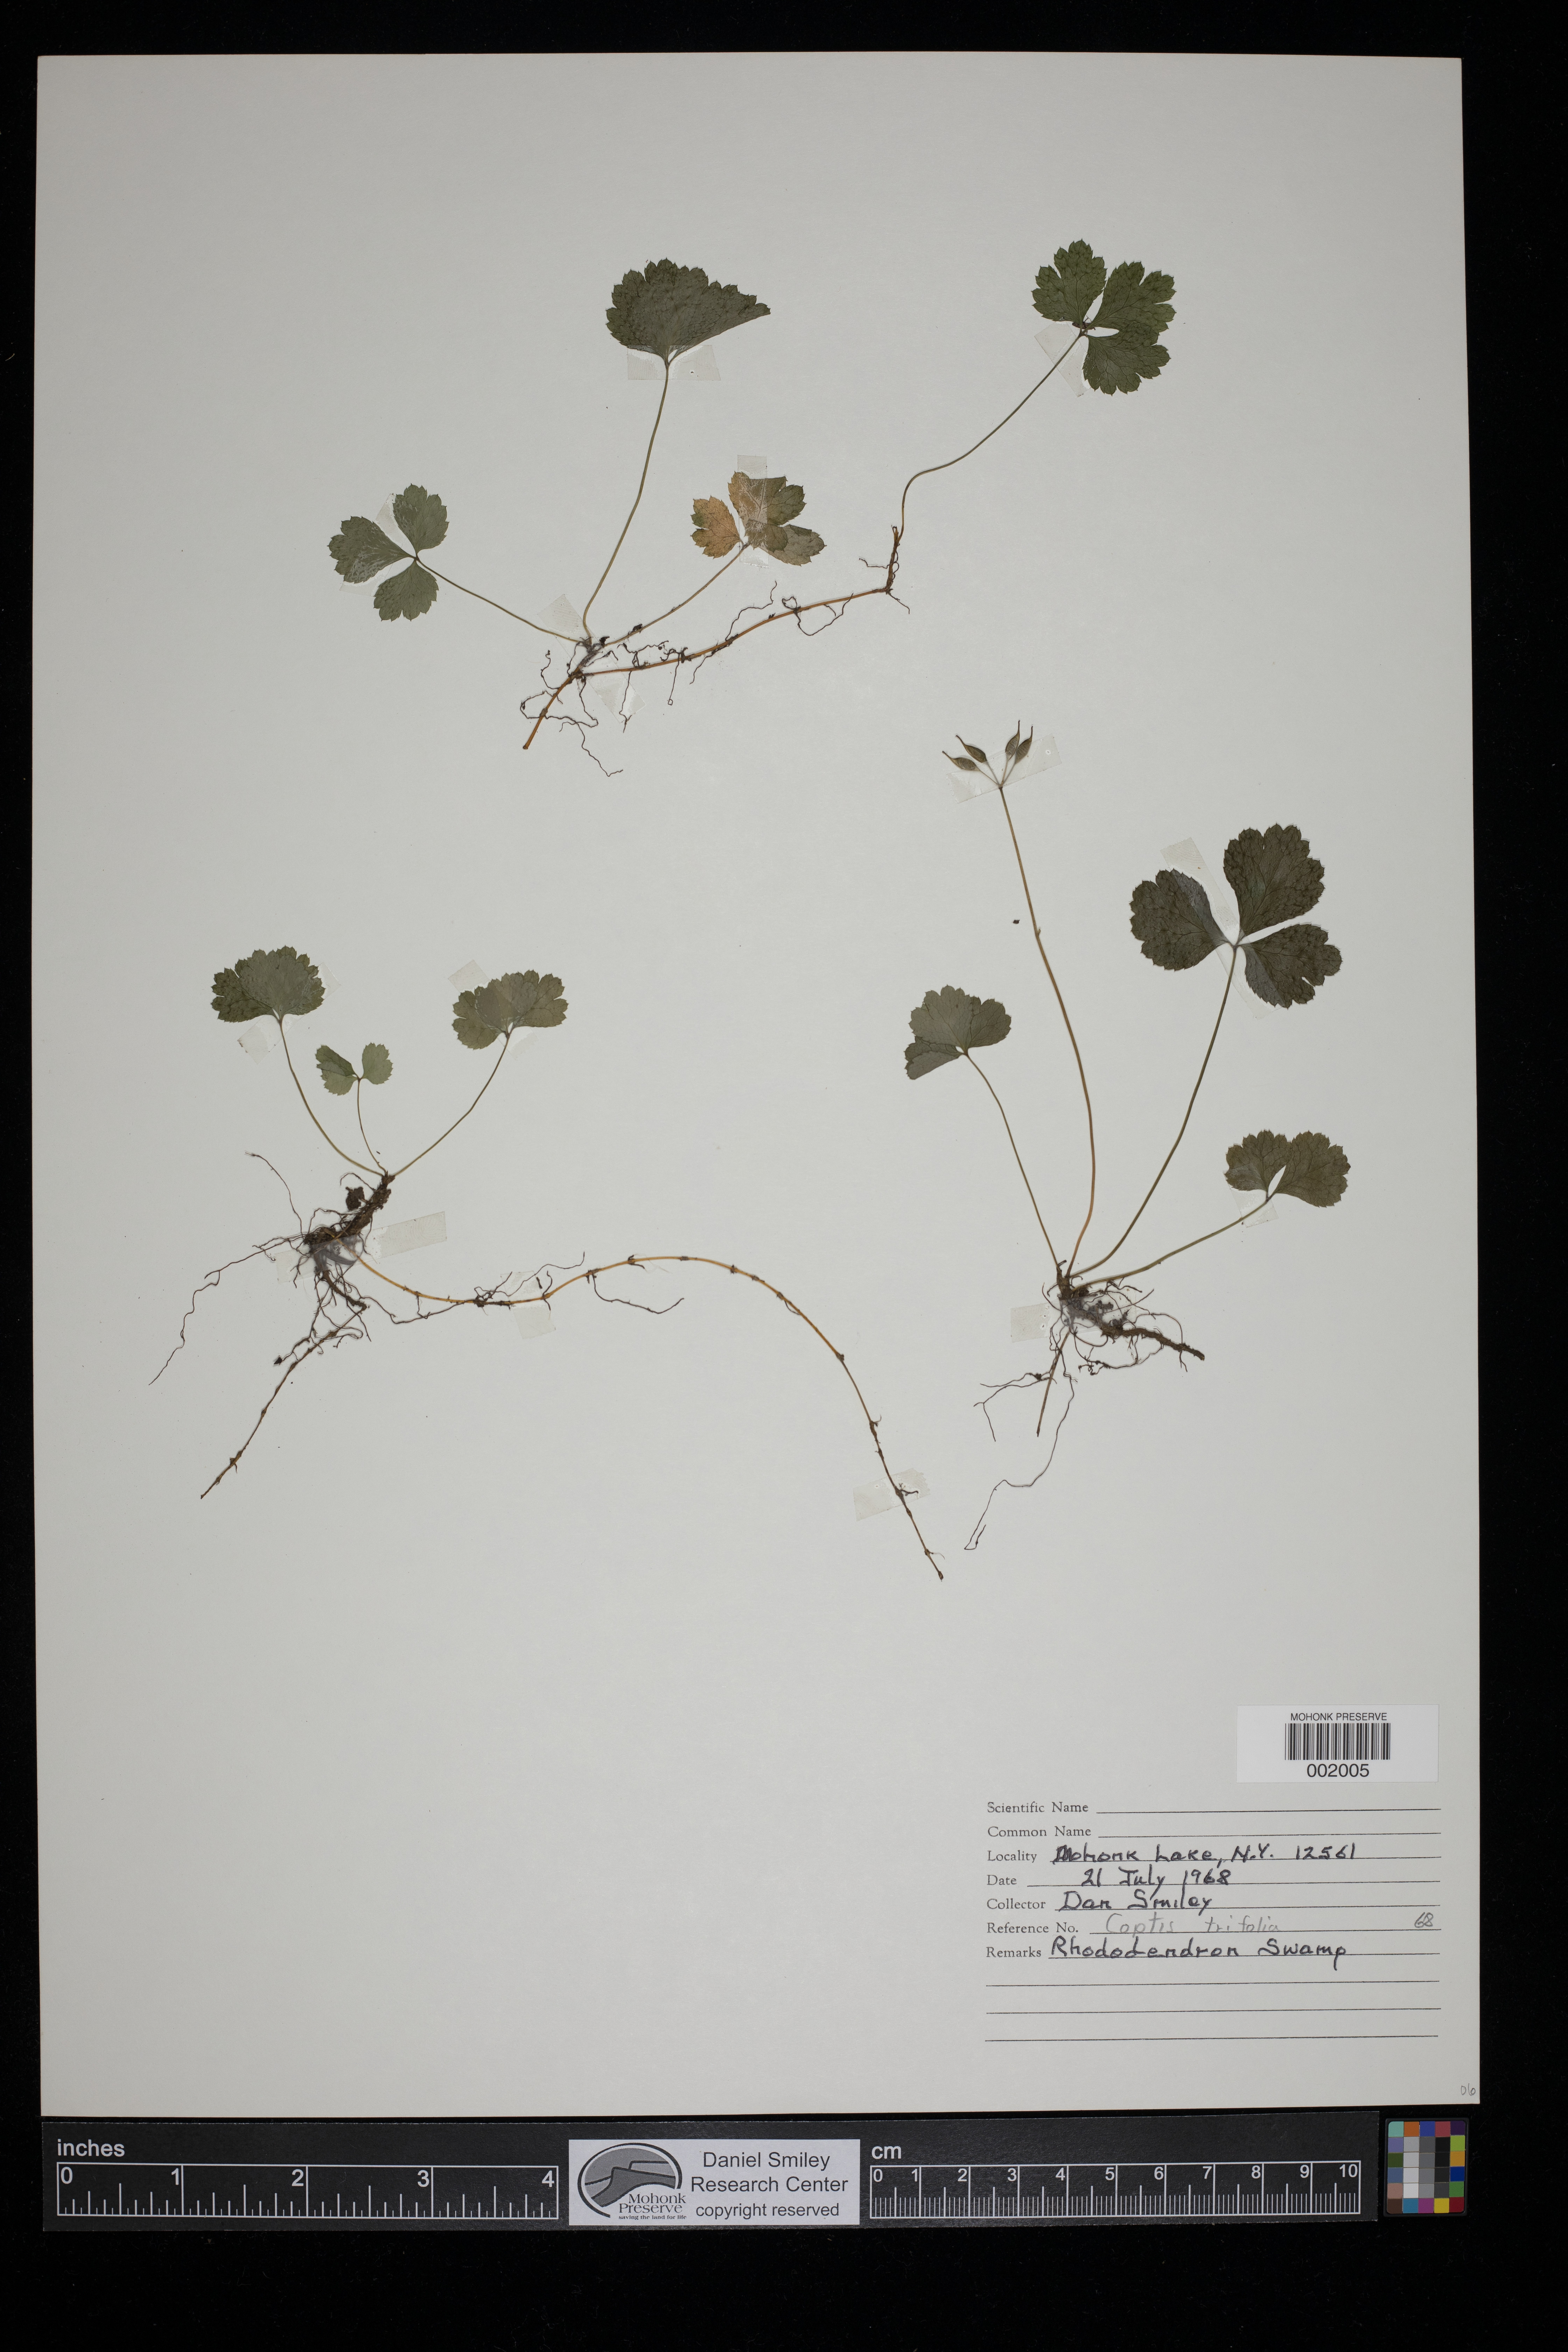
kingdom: Plantae
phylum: Tracheophyta
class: Magnoliopsida
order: Ranunculales
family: Ranunculaceae
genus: Coptis
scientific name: Coptis trifolia
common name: Canker-root
